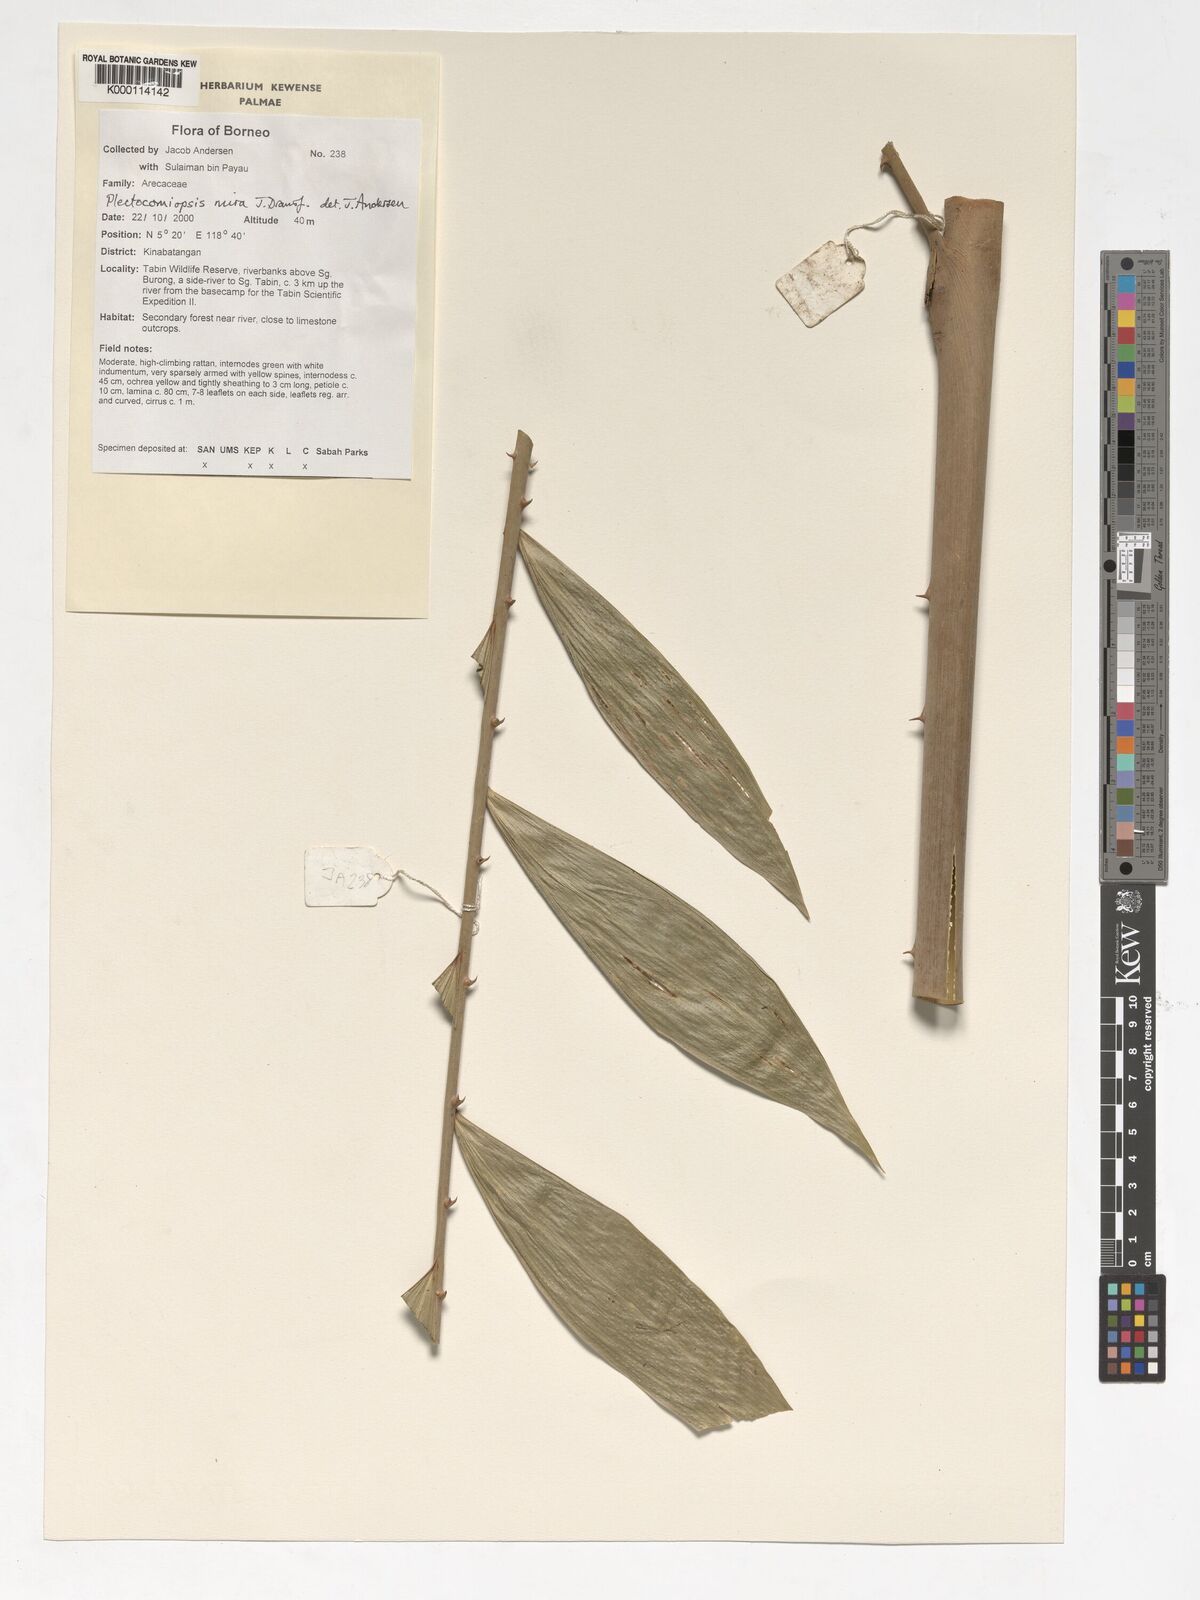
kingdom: Plantae
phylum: Tracheophyta
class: Liliopsida
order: Arecales
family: Arecaceae
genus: Plectocomiopsis
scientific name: Plectocomiopsis mira
